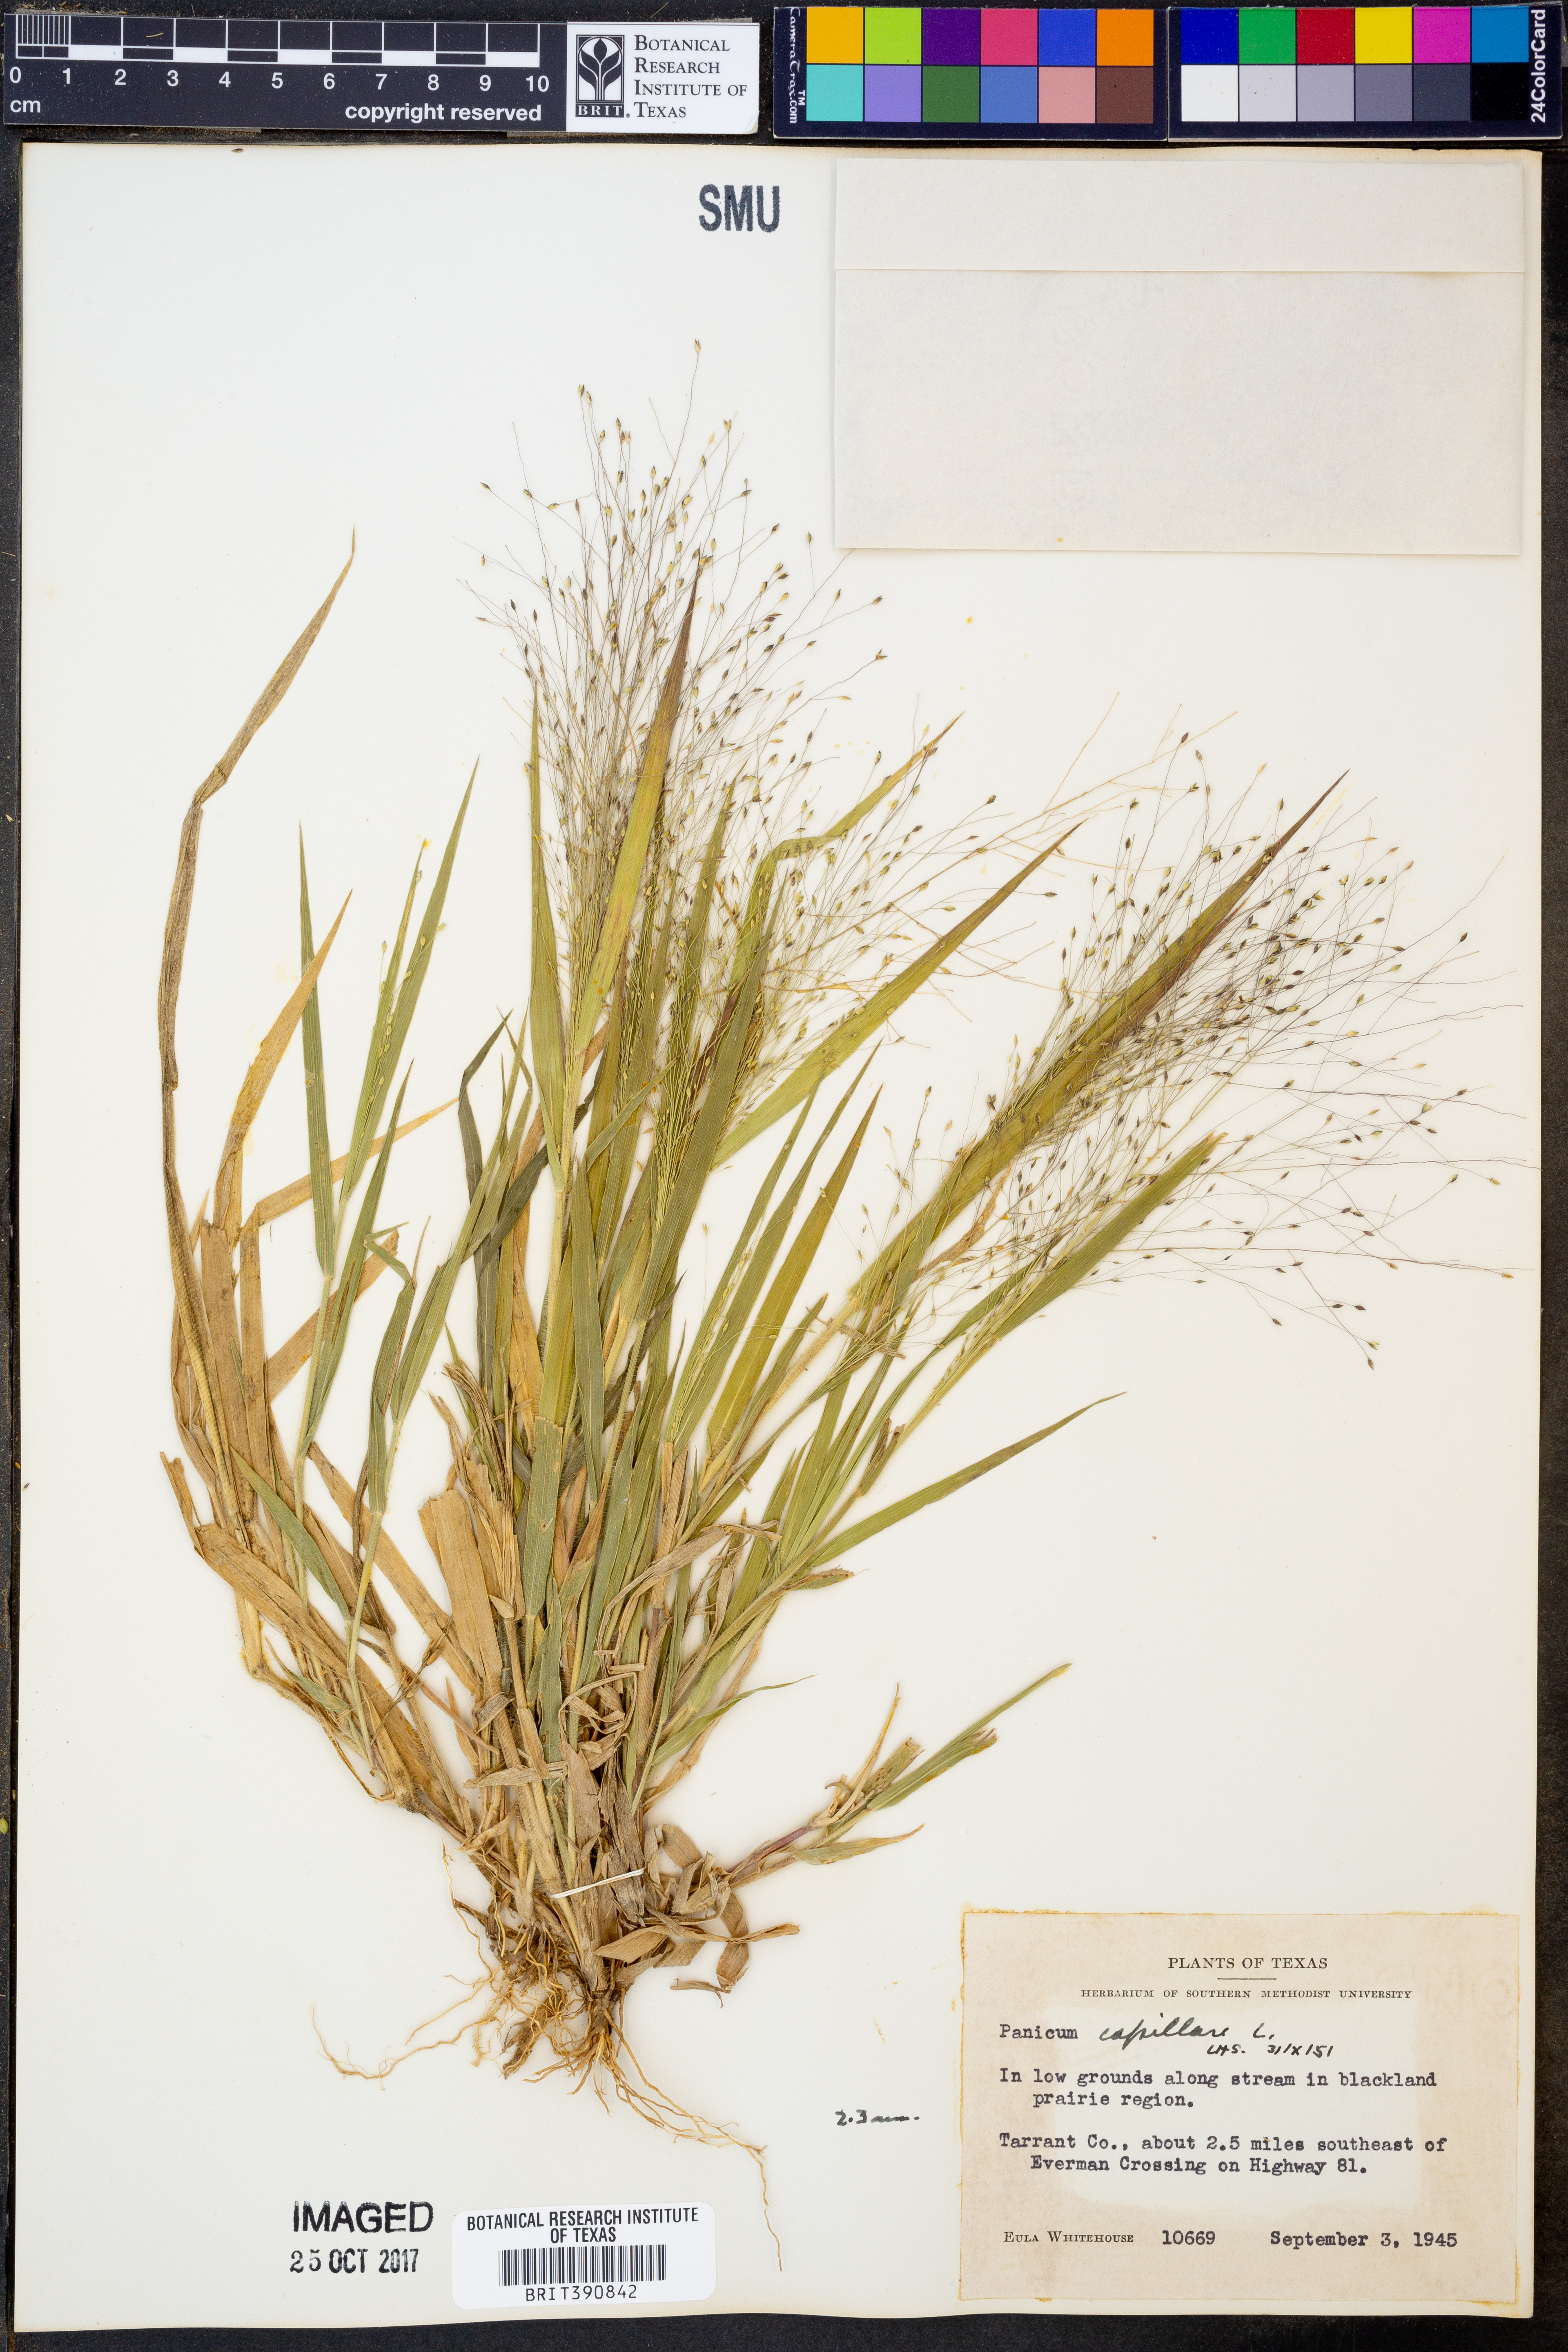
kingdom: Plantae
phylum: Tracheophyta
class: Liliopsida
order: Poales
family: Poaceae
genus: Panicum
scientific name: Panicum capillare
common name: Witch-grass
